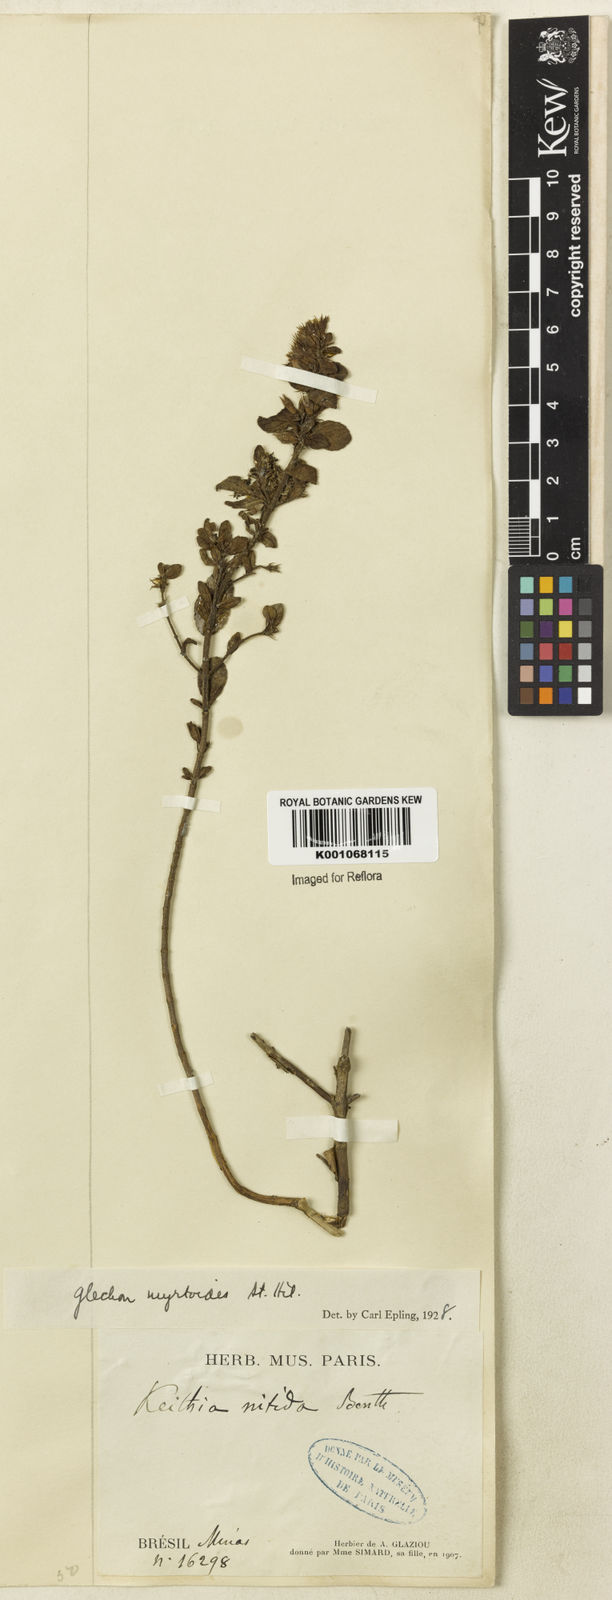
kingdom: Plantae
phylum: Tracheophyta
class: Magnoliopsida
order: Lamiales
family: Lamiaceae
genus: Hesperozygis
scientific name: Hesperozygis myrtoides
